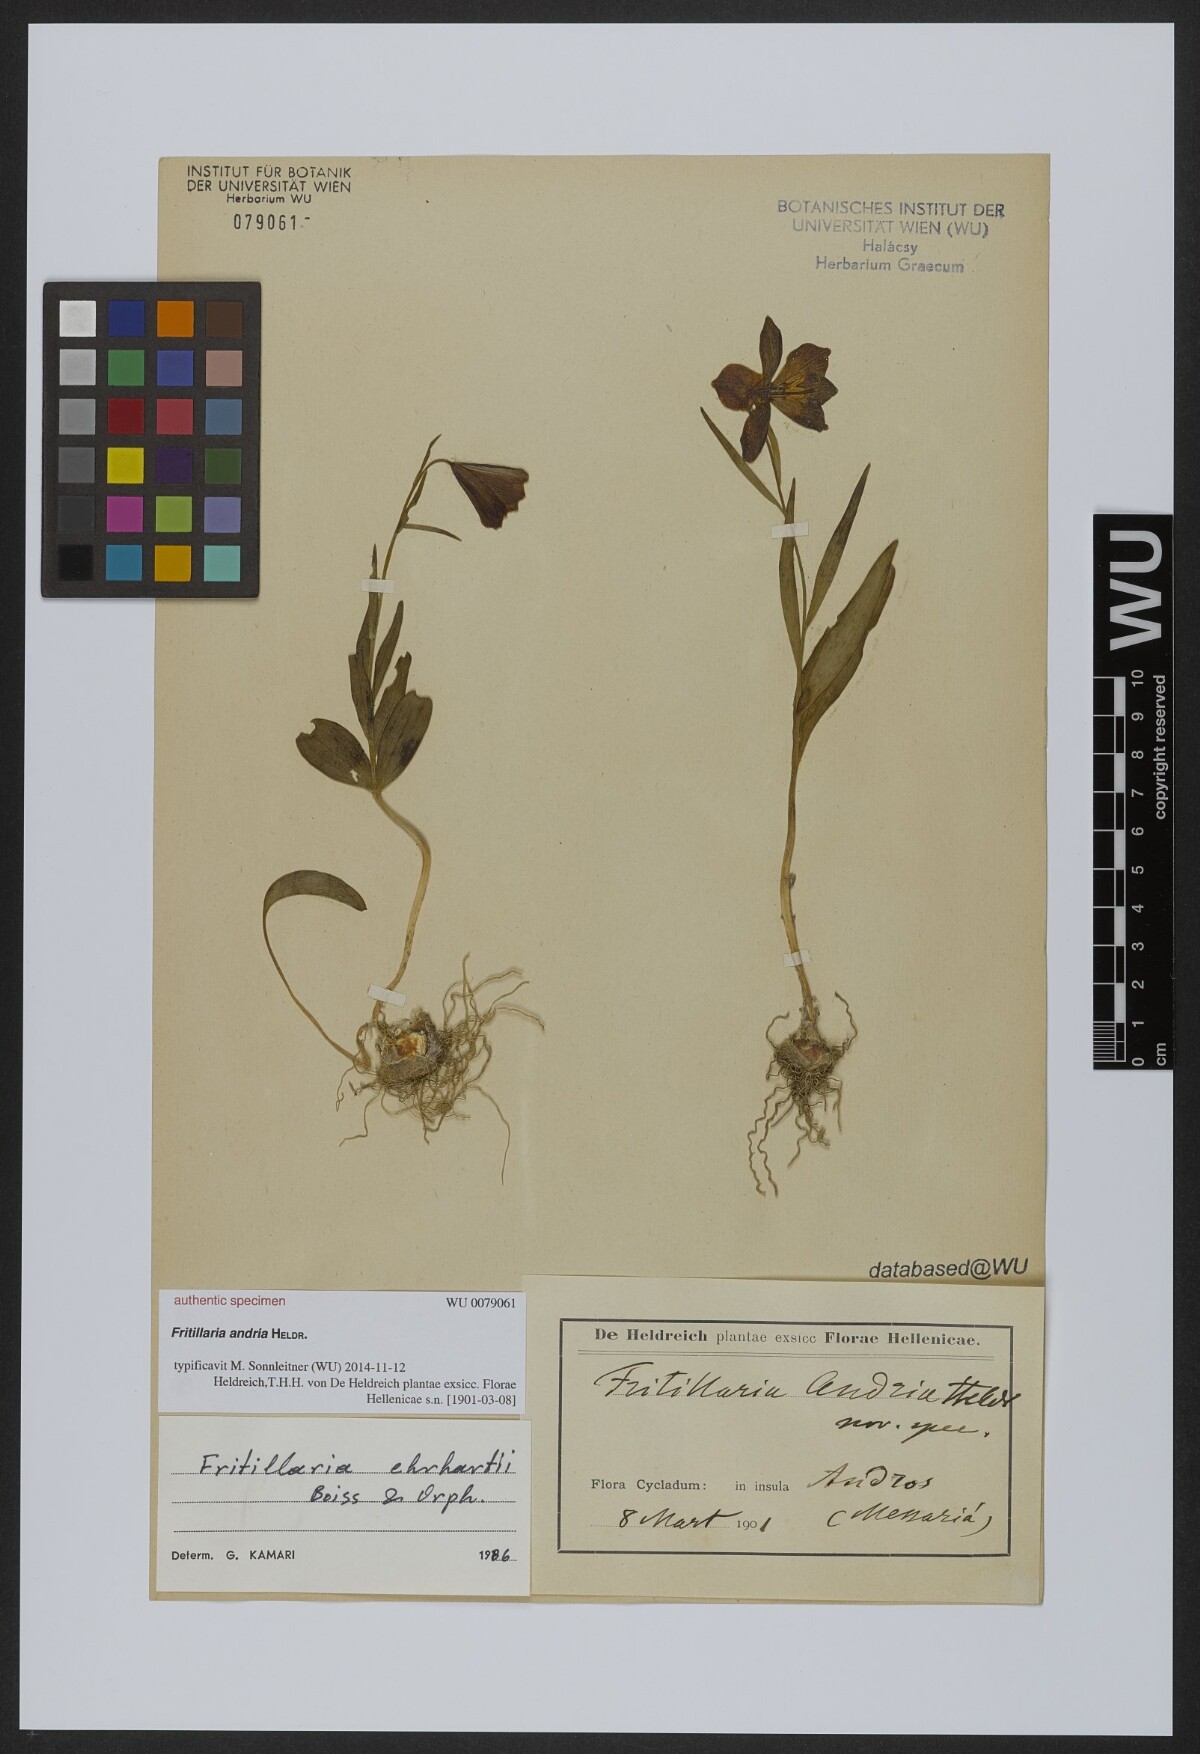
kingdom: Plantae
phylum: Tracheophyta
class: Liliopsida
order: Liliales
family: Liliaceae
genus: Fritillaria
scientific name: Fritillaria
